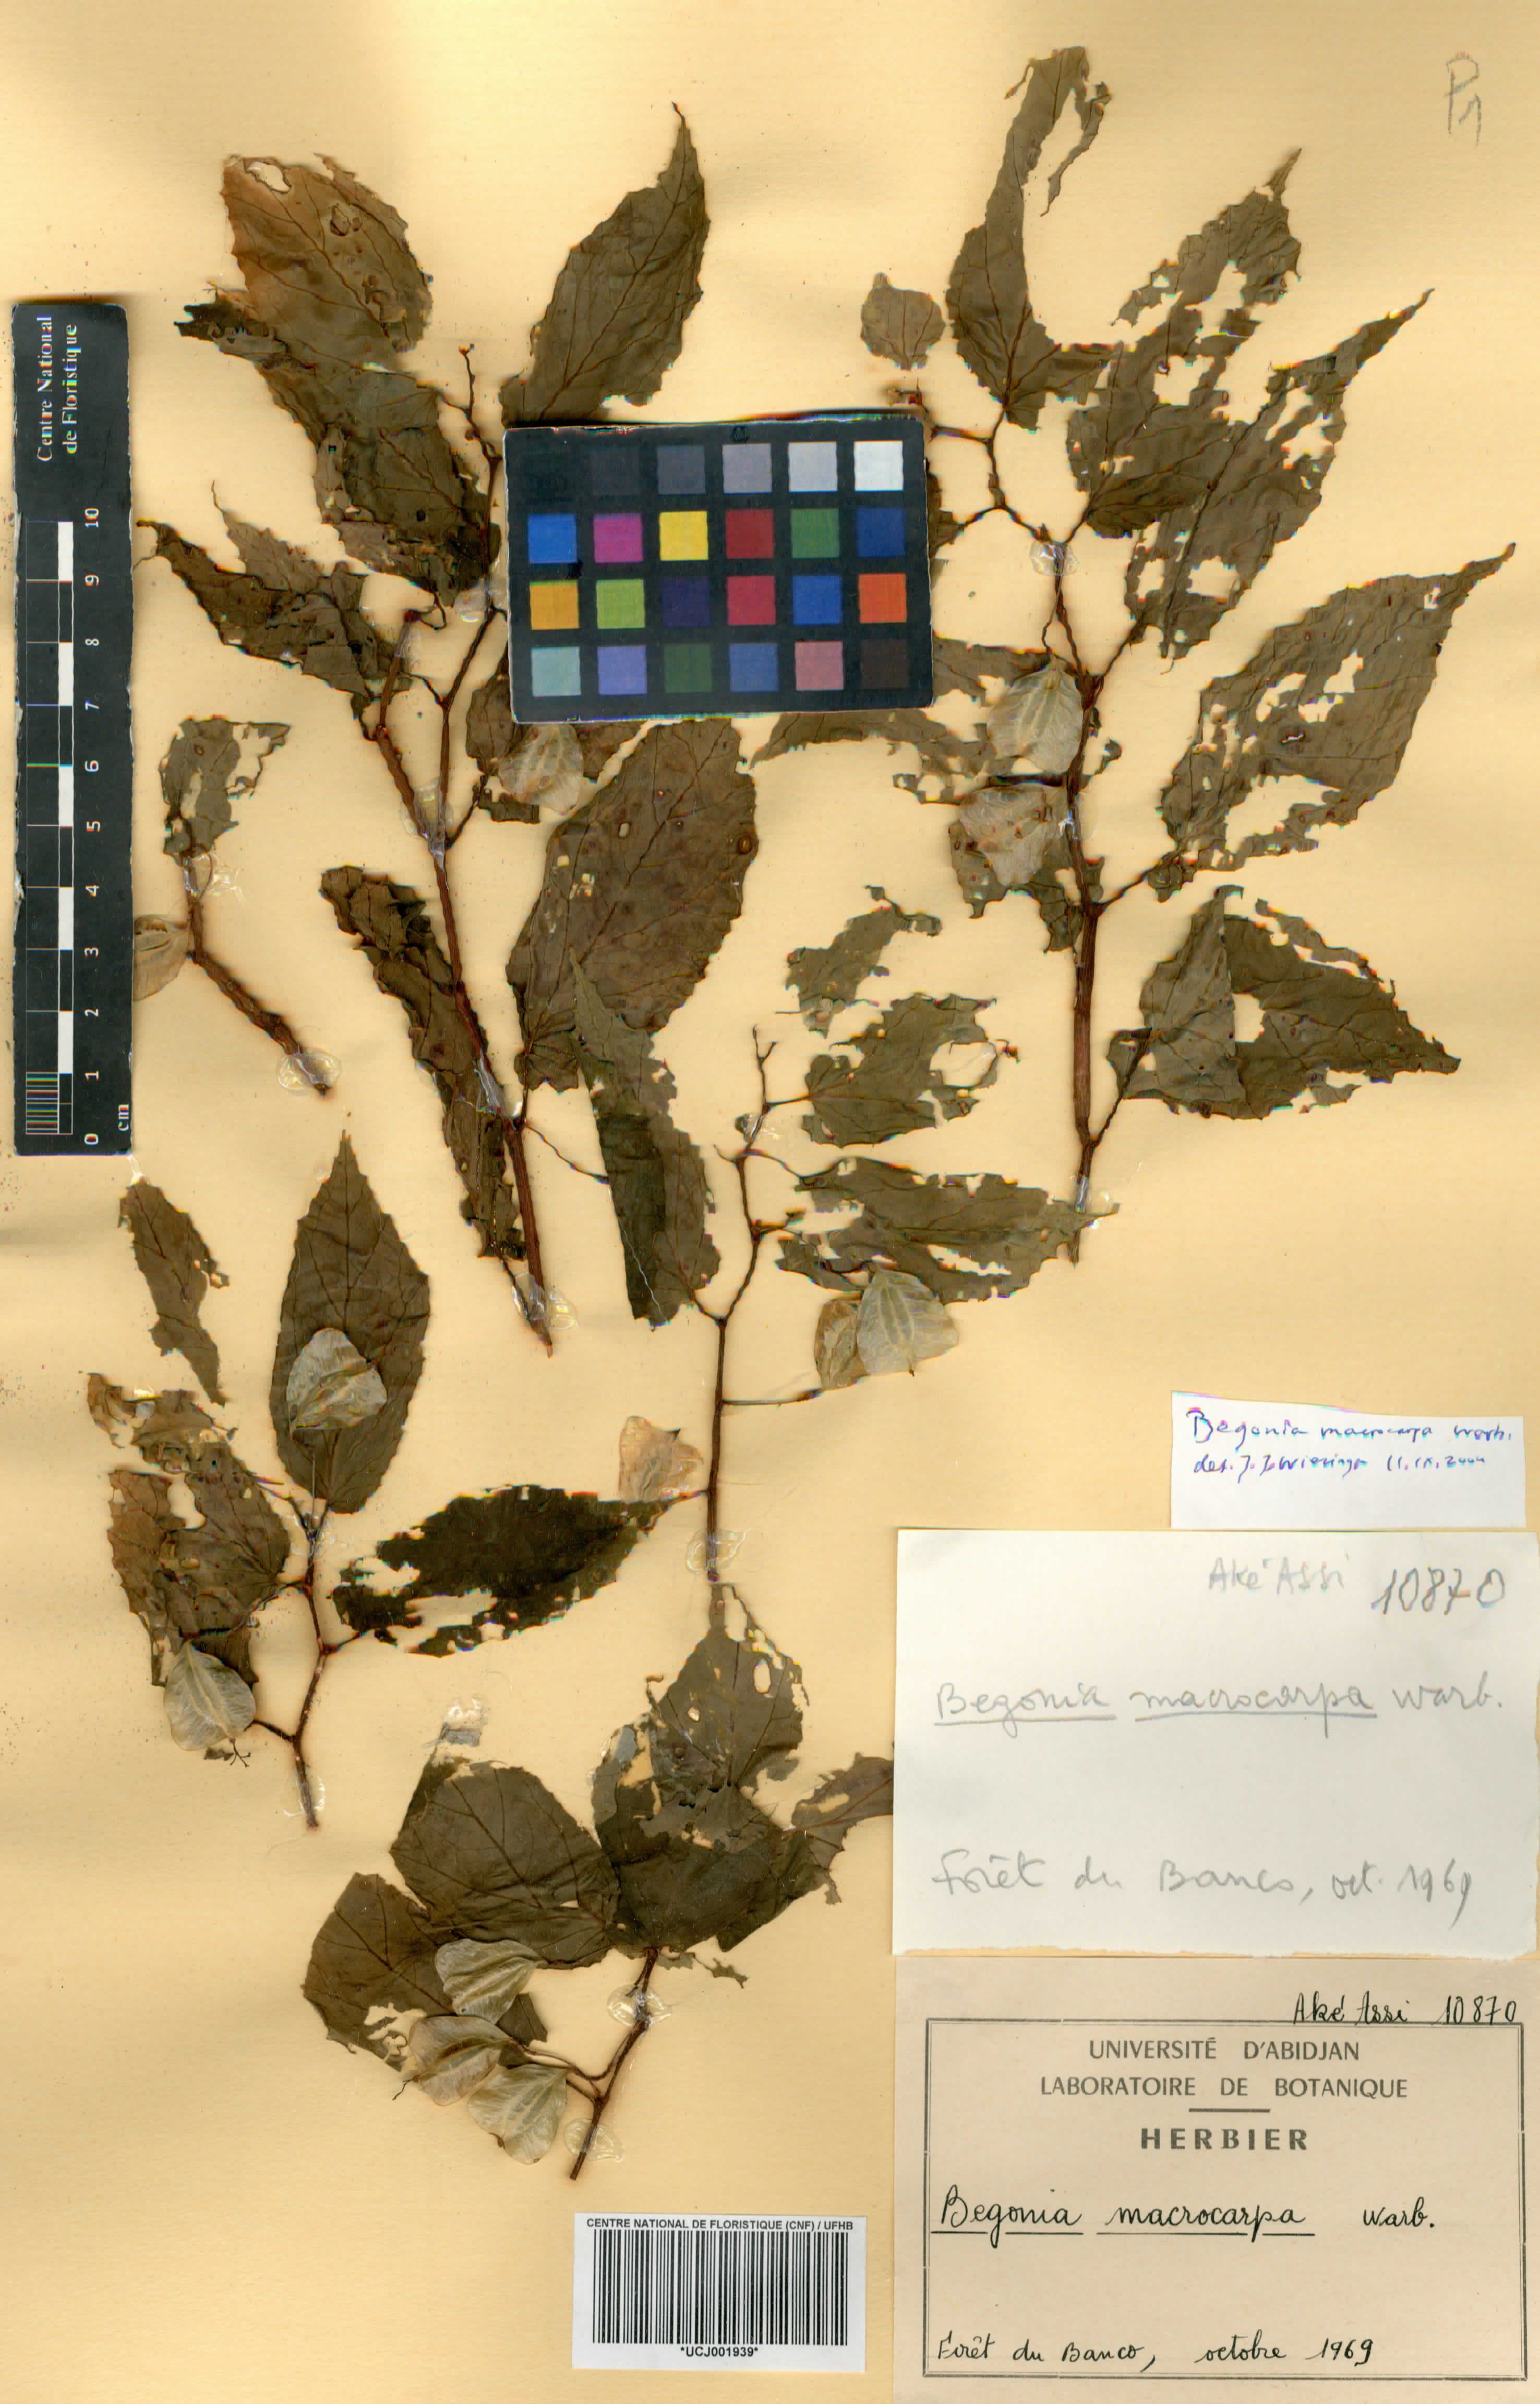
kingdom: Plantae
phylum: Tracheophyta
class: Magnoliopsida
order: Cucurbitales
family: Begoniaceae
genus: Begonia
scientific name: Begonia macrocarpa
